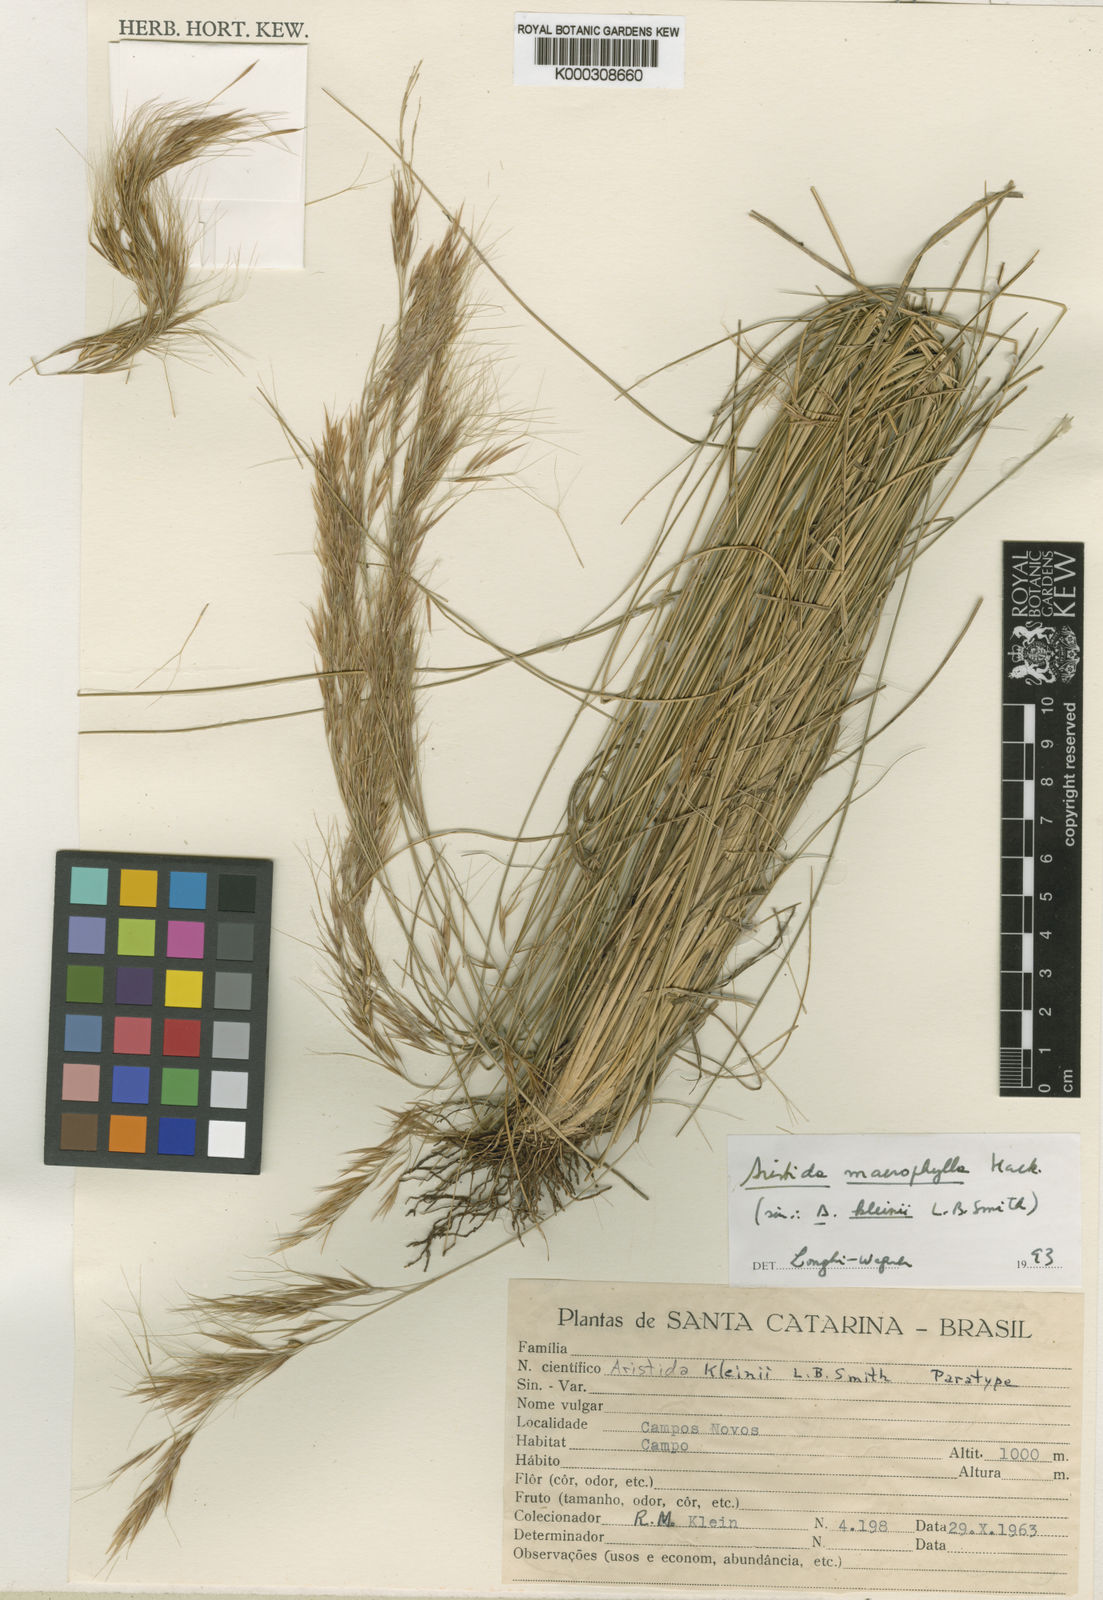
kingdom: Plantae
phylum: Tracheophyta
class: Liliopsida
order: Poales
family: Poaceae
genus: Aristida
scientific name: Aristida macrophylla
